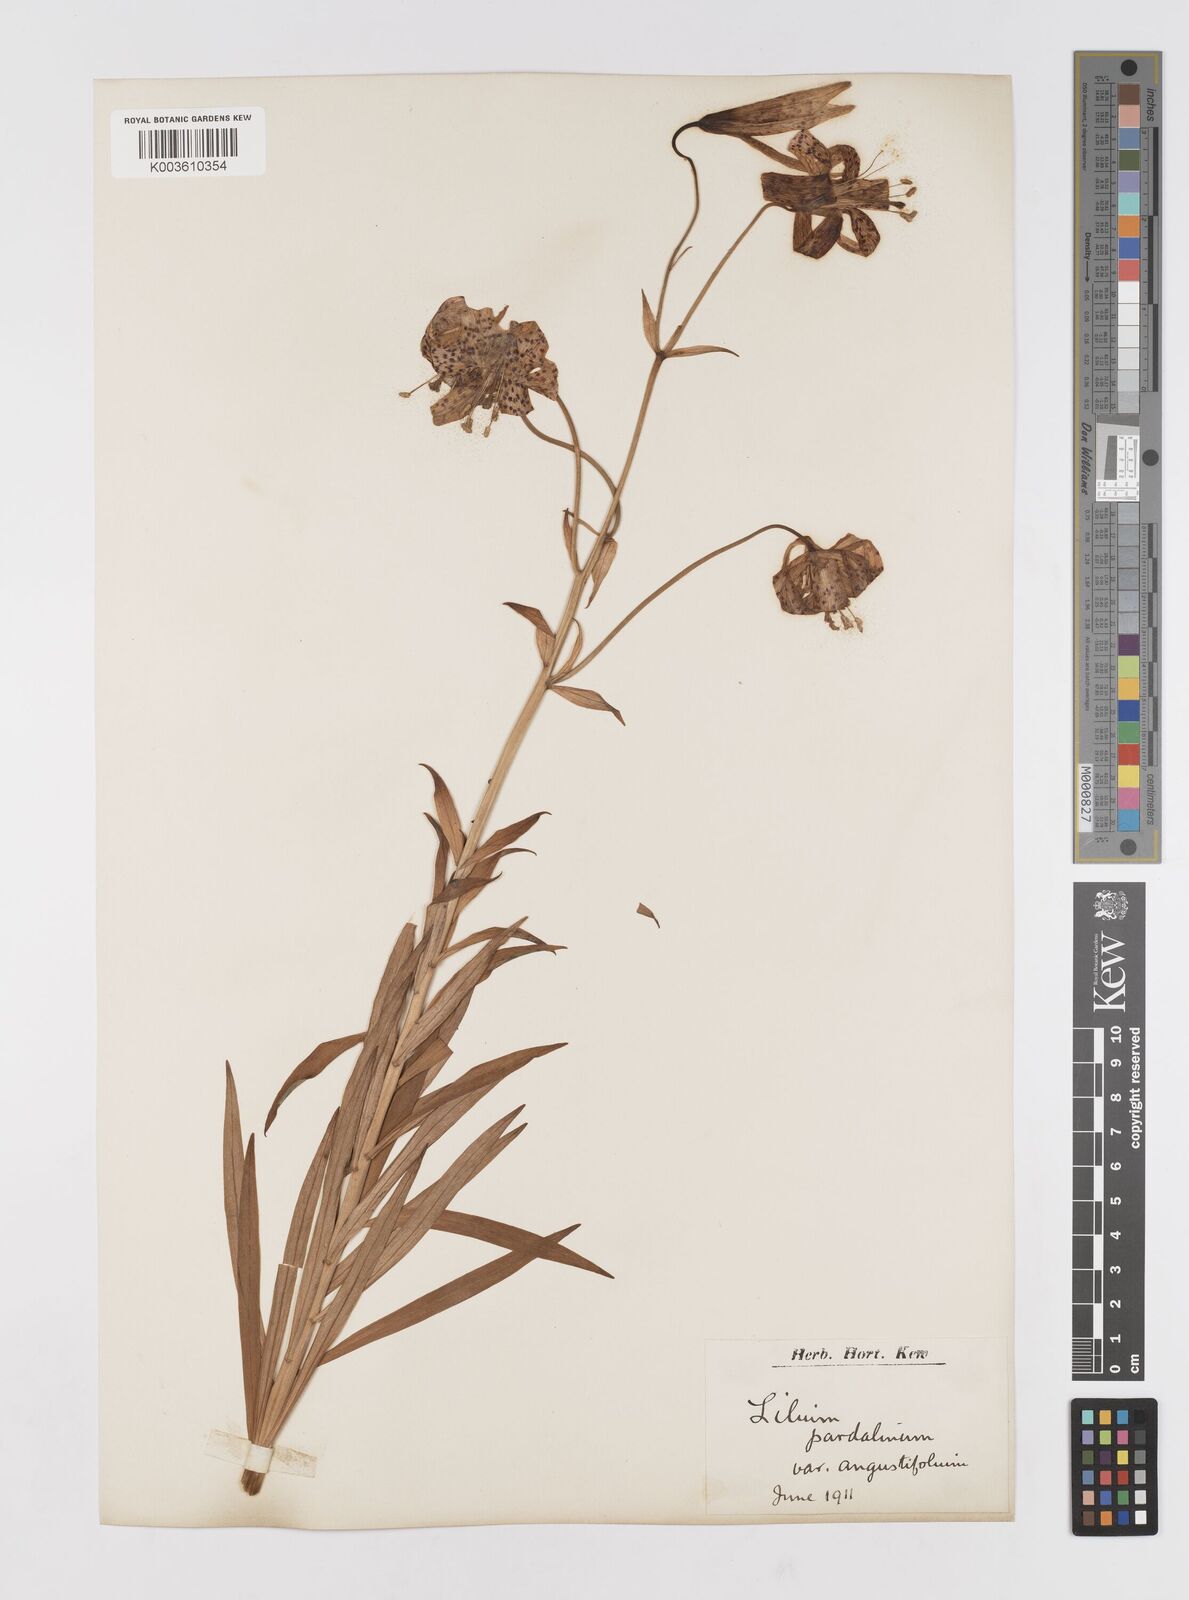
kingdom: Plantae
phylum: Tracheophyta
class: Liliopsida
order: Liliales
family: Liliaceae
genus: Lilium
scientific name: Lilium pardalinum
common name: Panther lily
